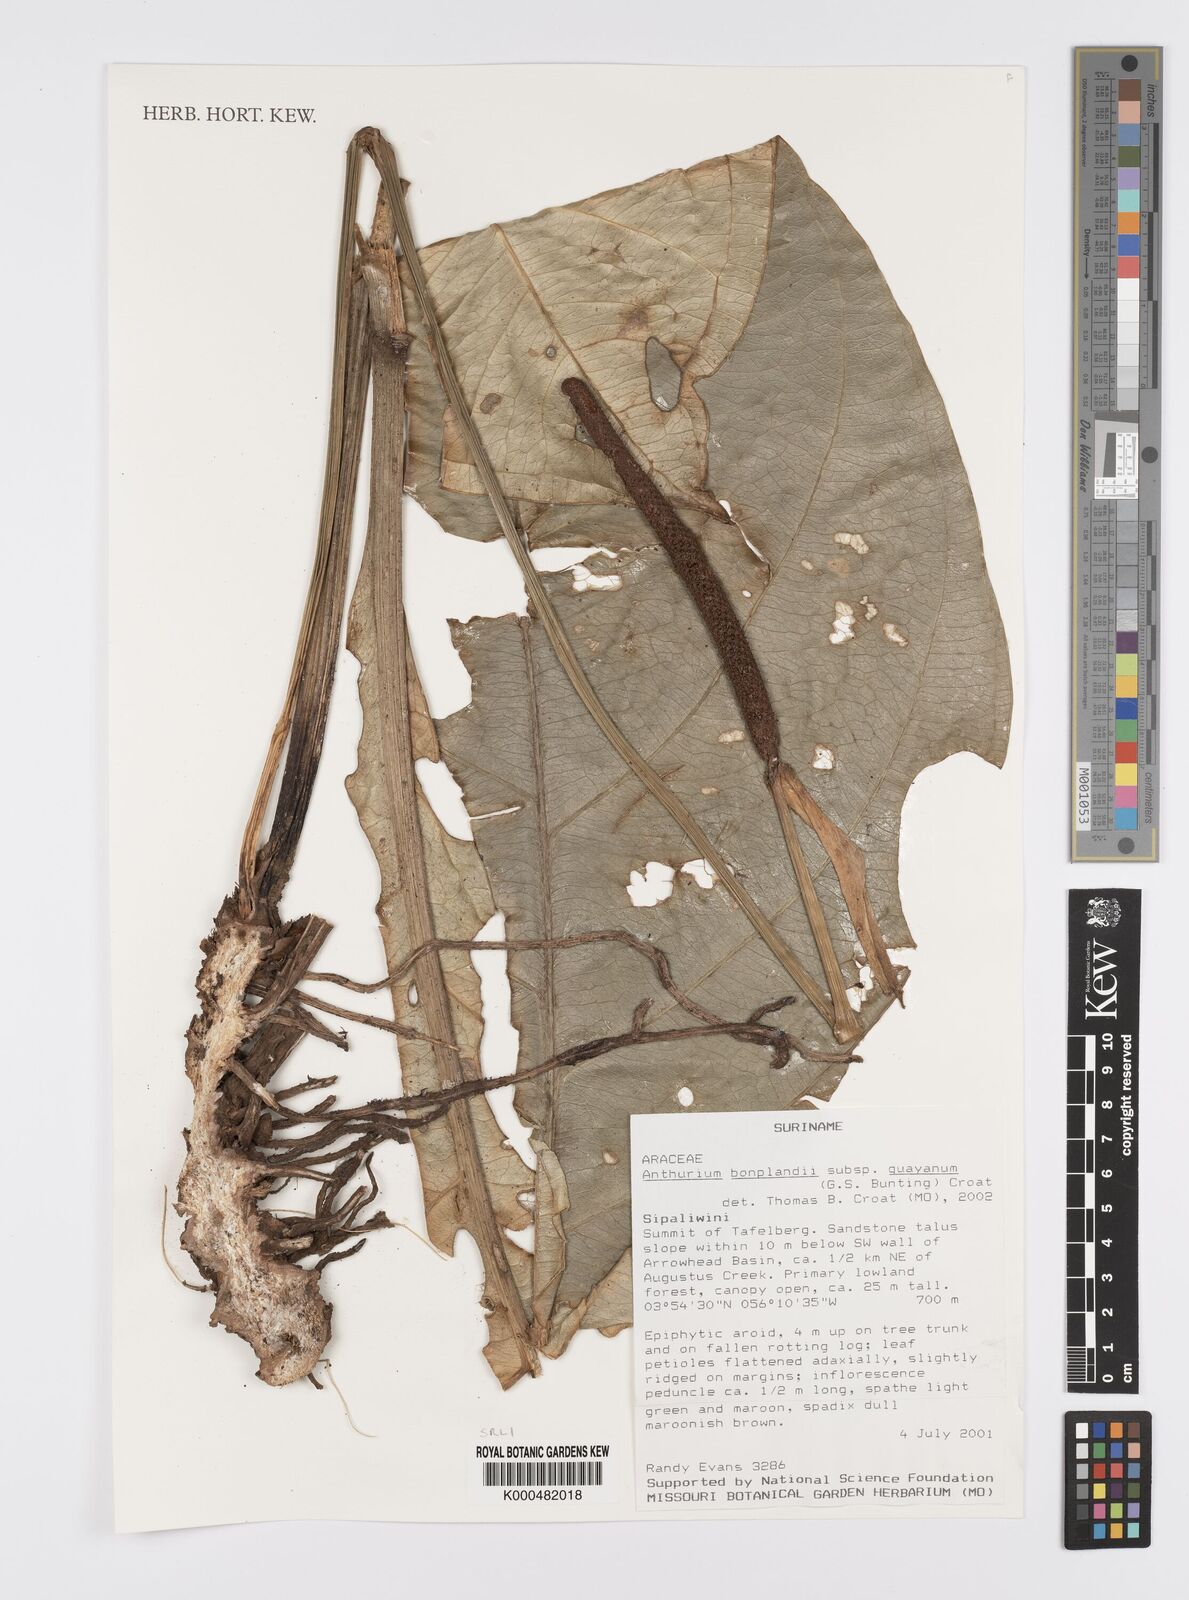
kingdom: Plantae
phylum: Tracheophyta
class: Liliopsida
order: Alismatales
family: Araceae
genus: Anthurium
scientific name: Anthurium bonplandii
